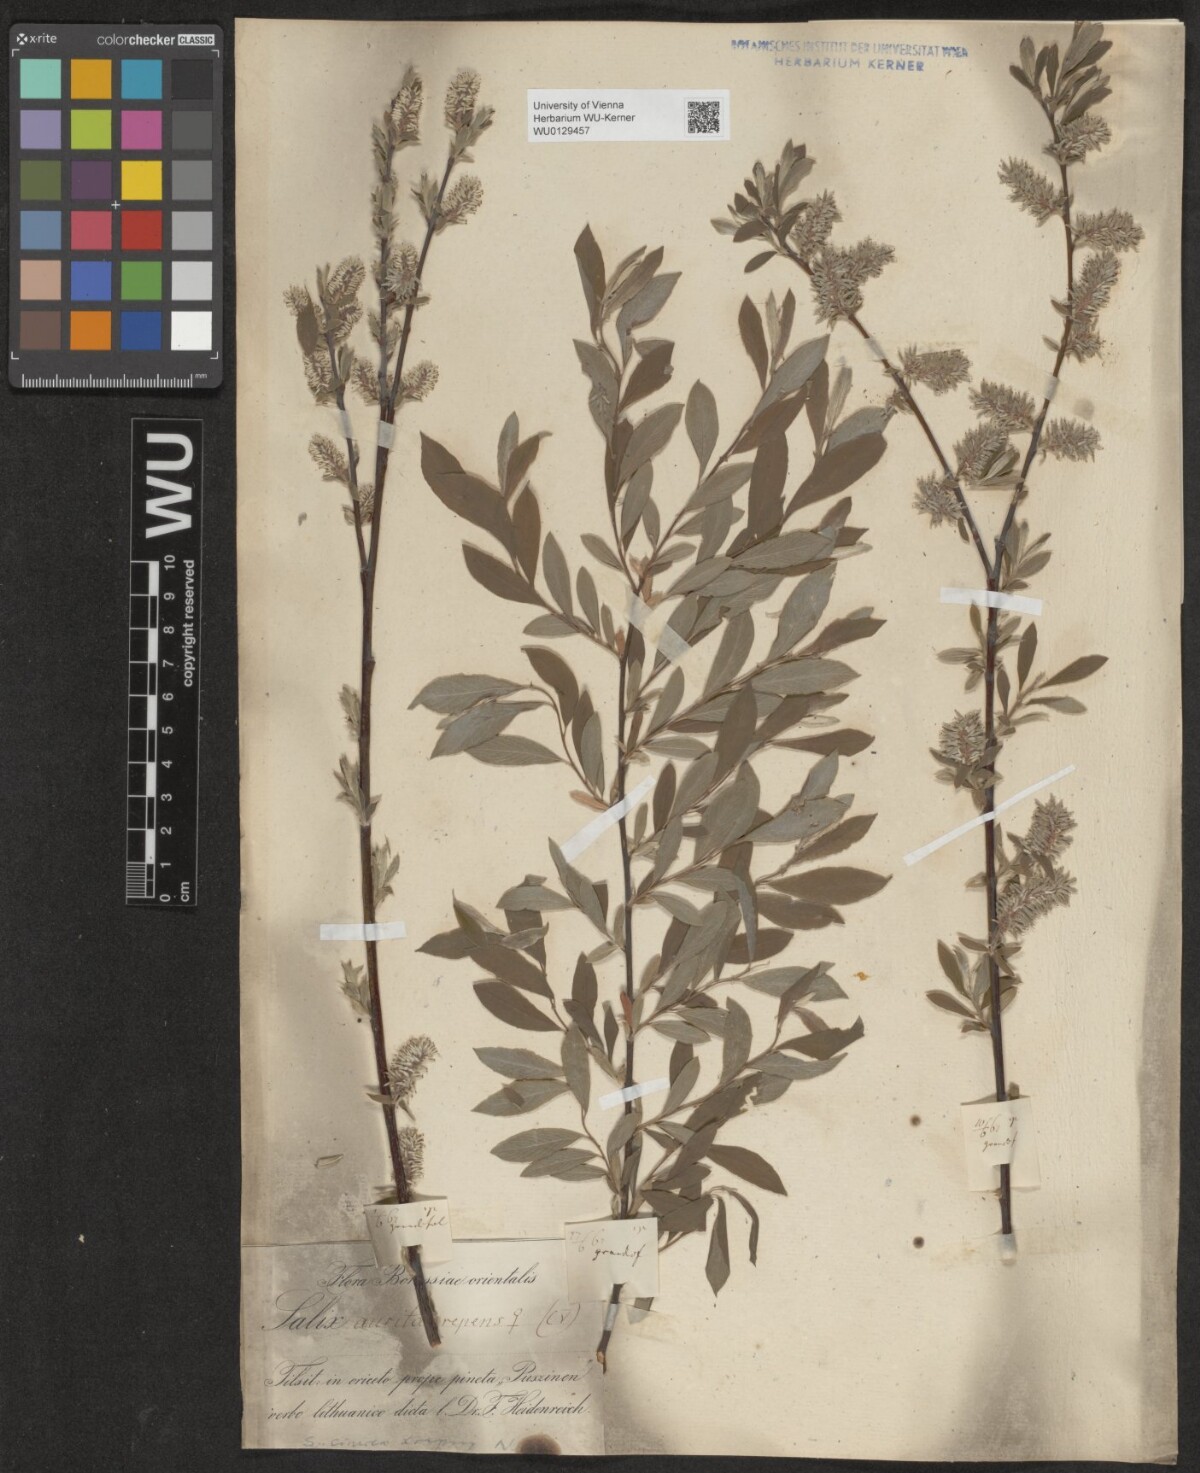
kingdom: Plantae
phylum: Tracheophyta
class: Magnoliopsida
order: Malpighiales
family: Salicaceae
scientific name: Salicaceae
